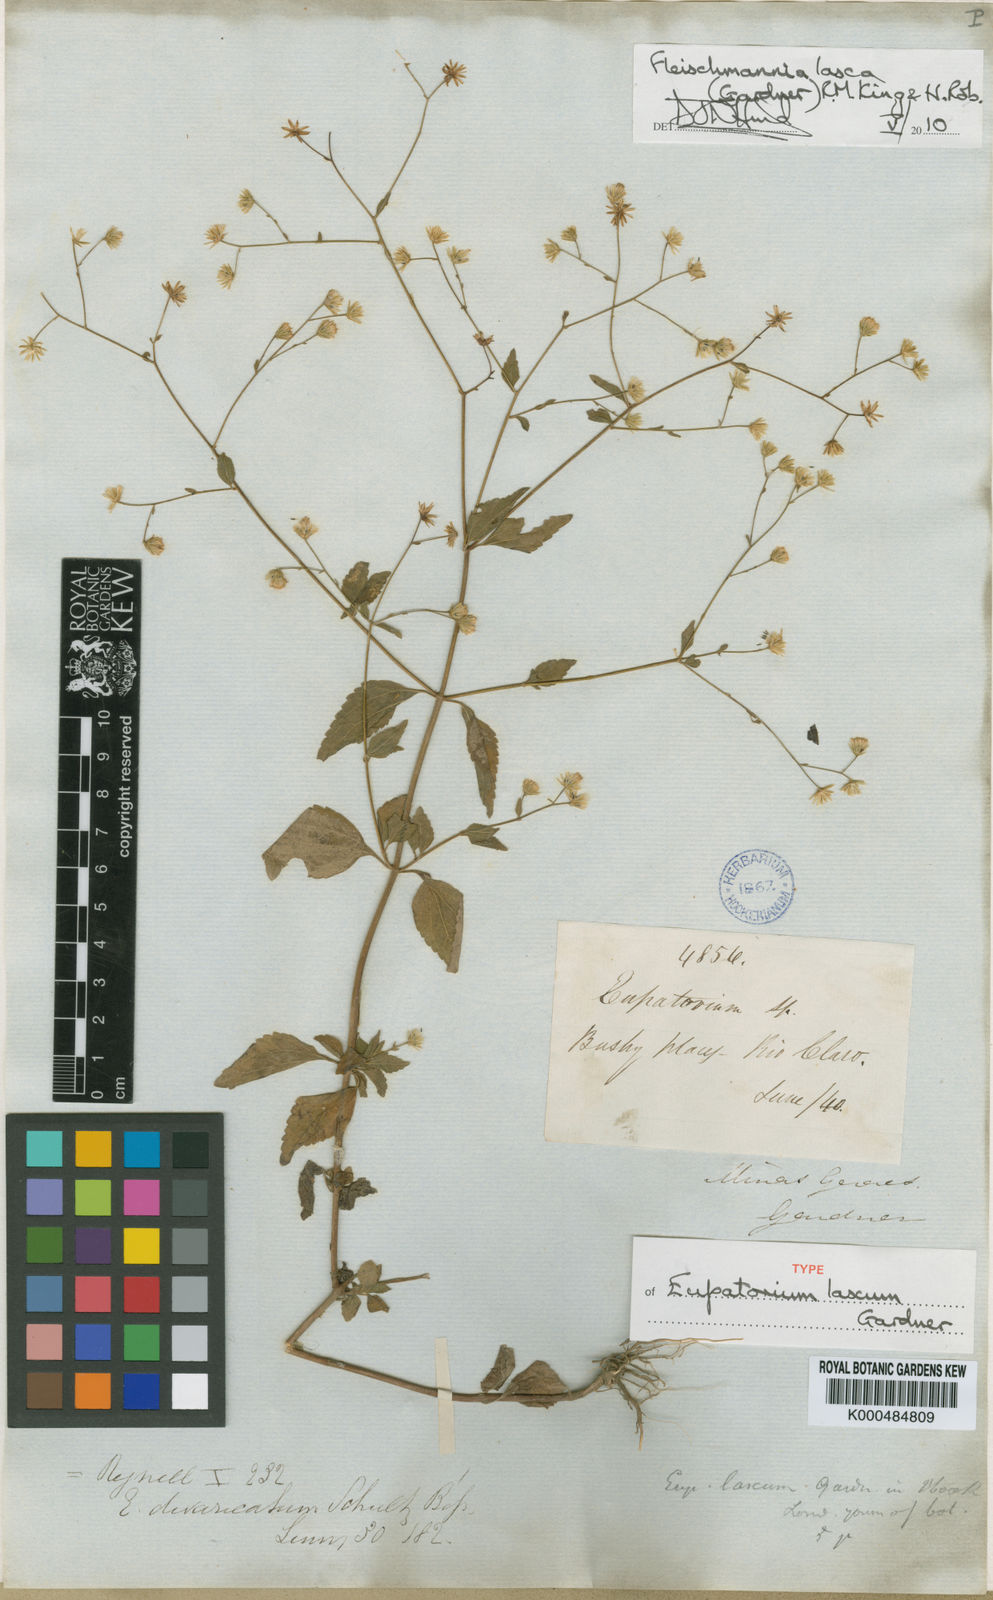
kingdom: Plantae
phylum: Tracheophyta
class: Magnoliopsida
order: Asterales
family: Asteraceae
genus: Fleischmannia
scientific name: Fleischmannia laxa
